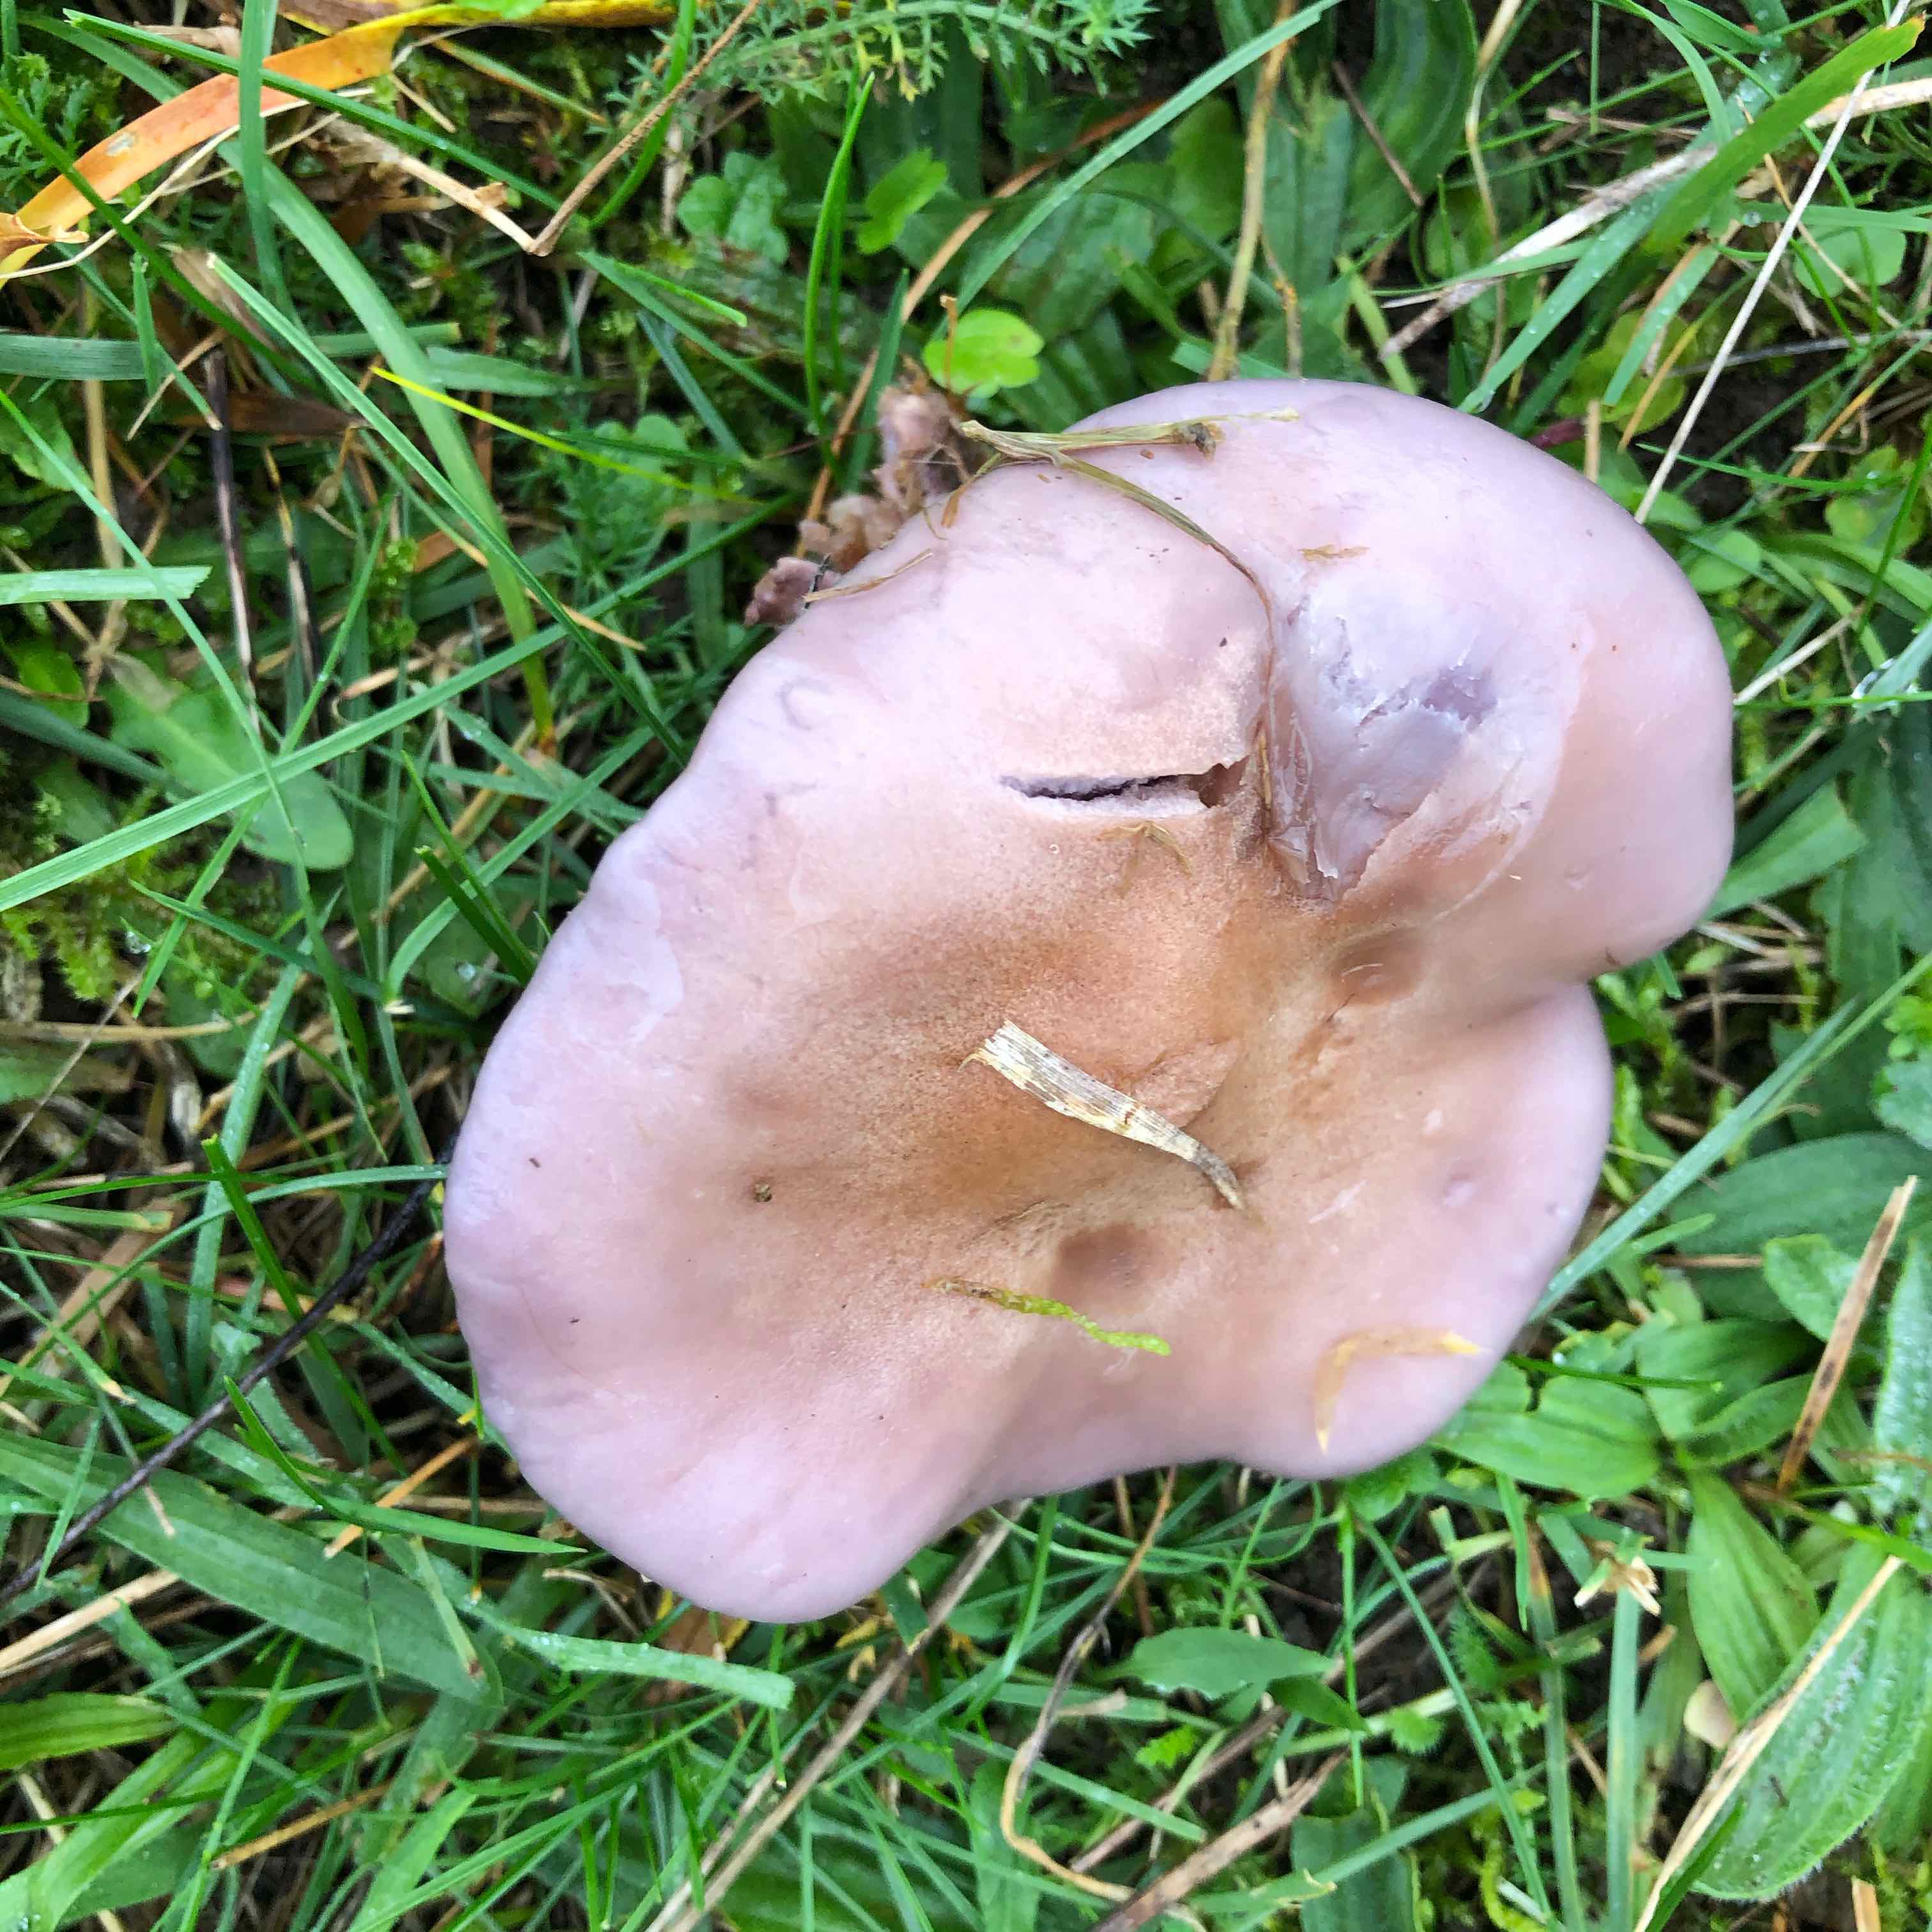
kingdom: Fungi
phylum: Basidiomycota
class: Agaricomycetes
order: Agaricales
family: Tricholomataceae
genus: Lepista
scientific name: Lepista nuda
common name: violet hekseringshat
